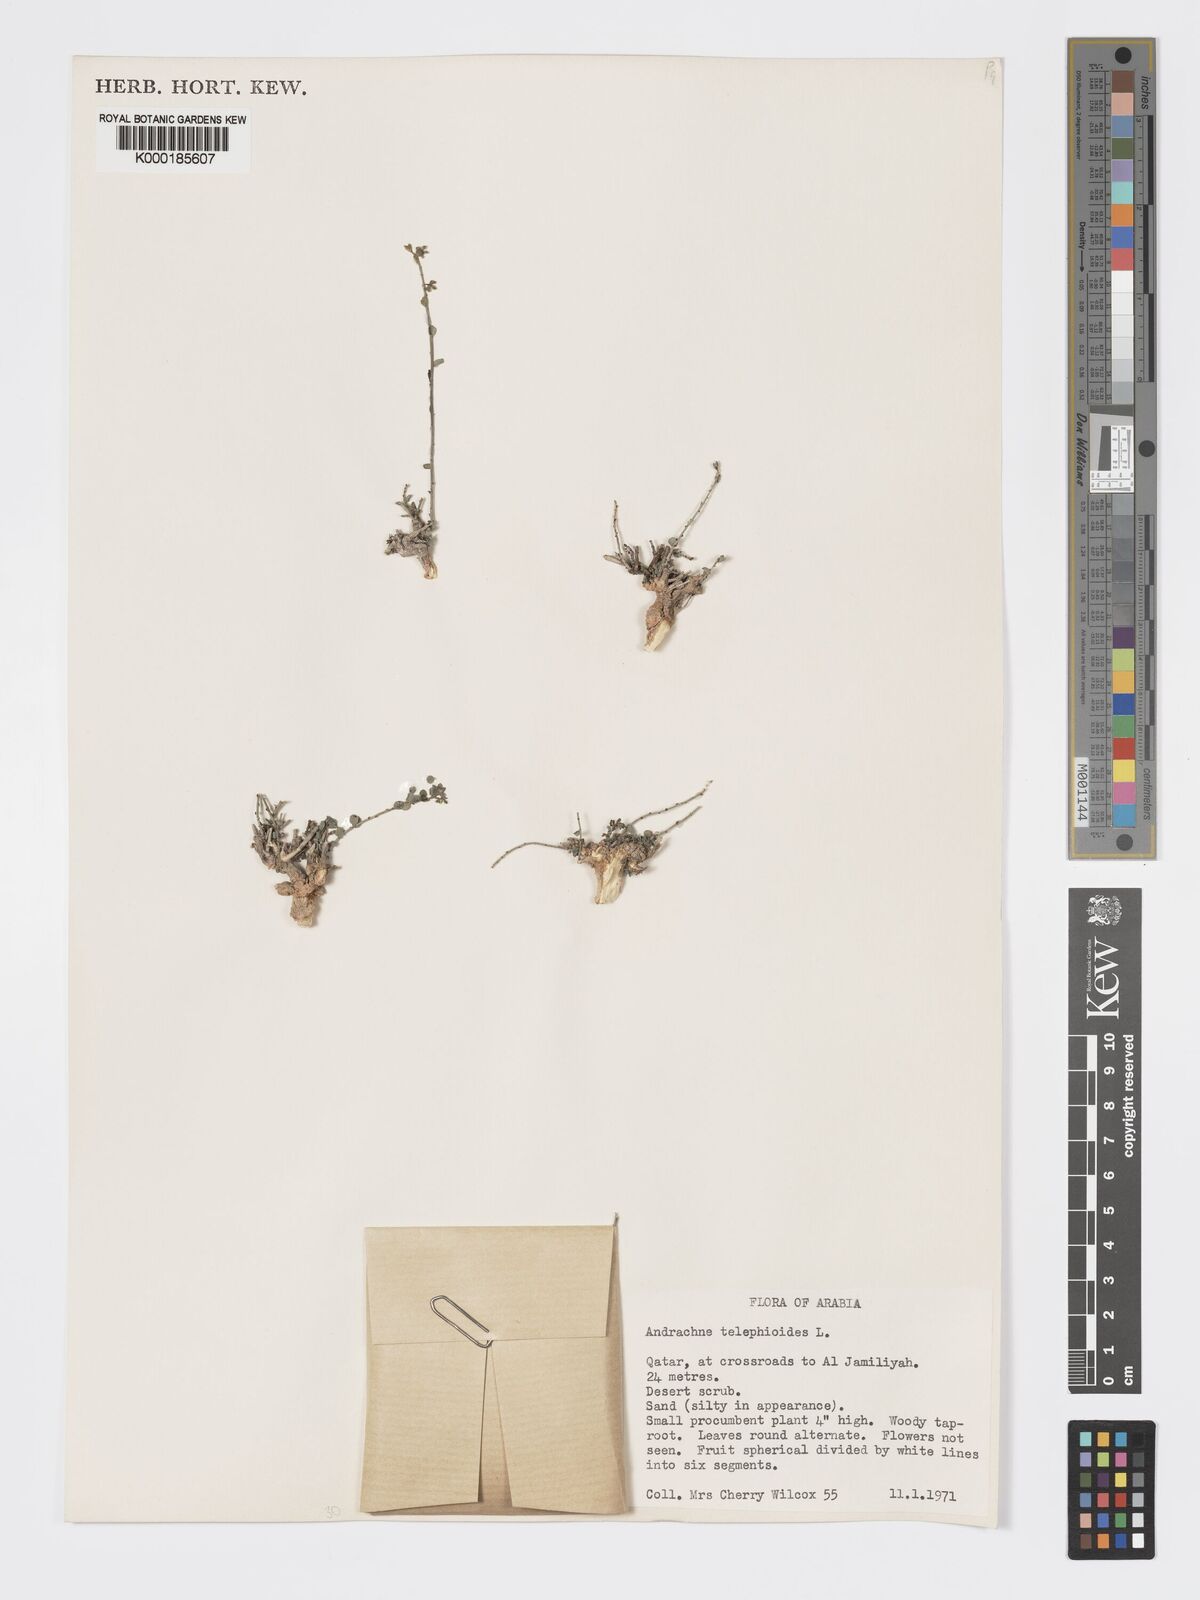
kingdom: Plantae
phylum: Tracheophyta
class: Magnoliopsida
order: Malpighiales
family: Phyllanthaceae
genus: Andrachne
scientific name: Andrachne telephioides
